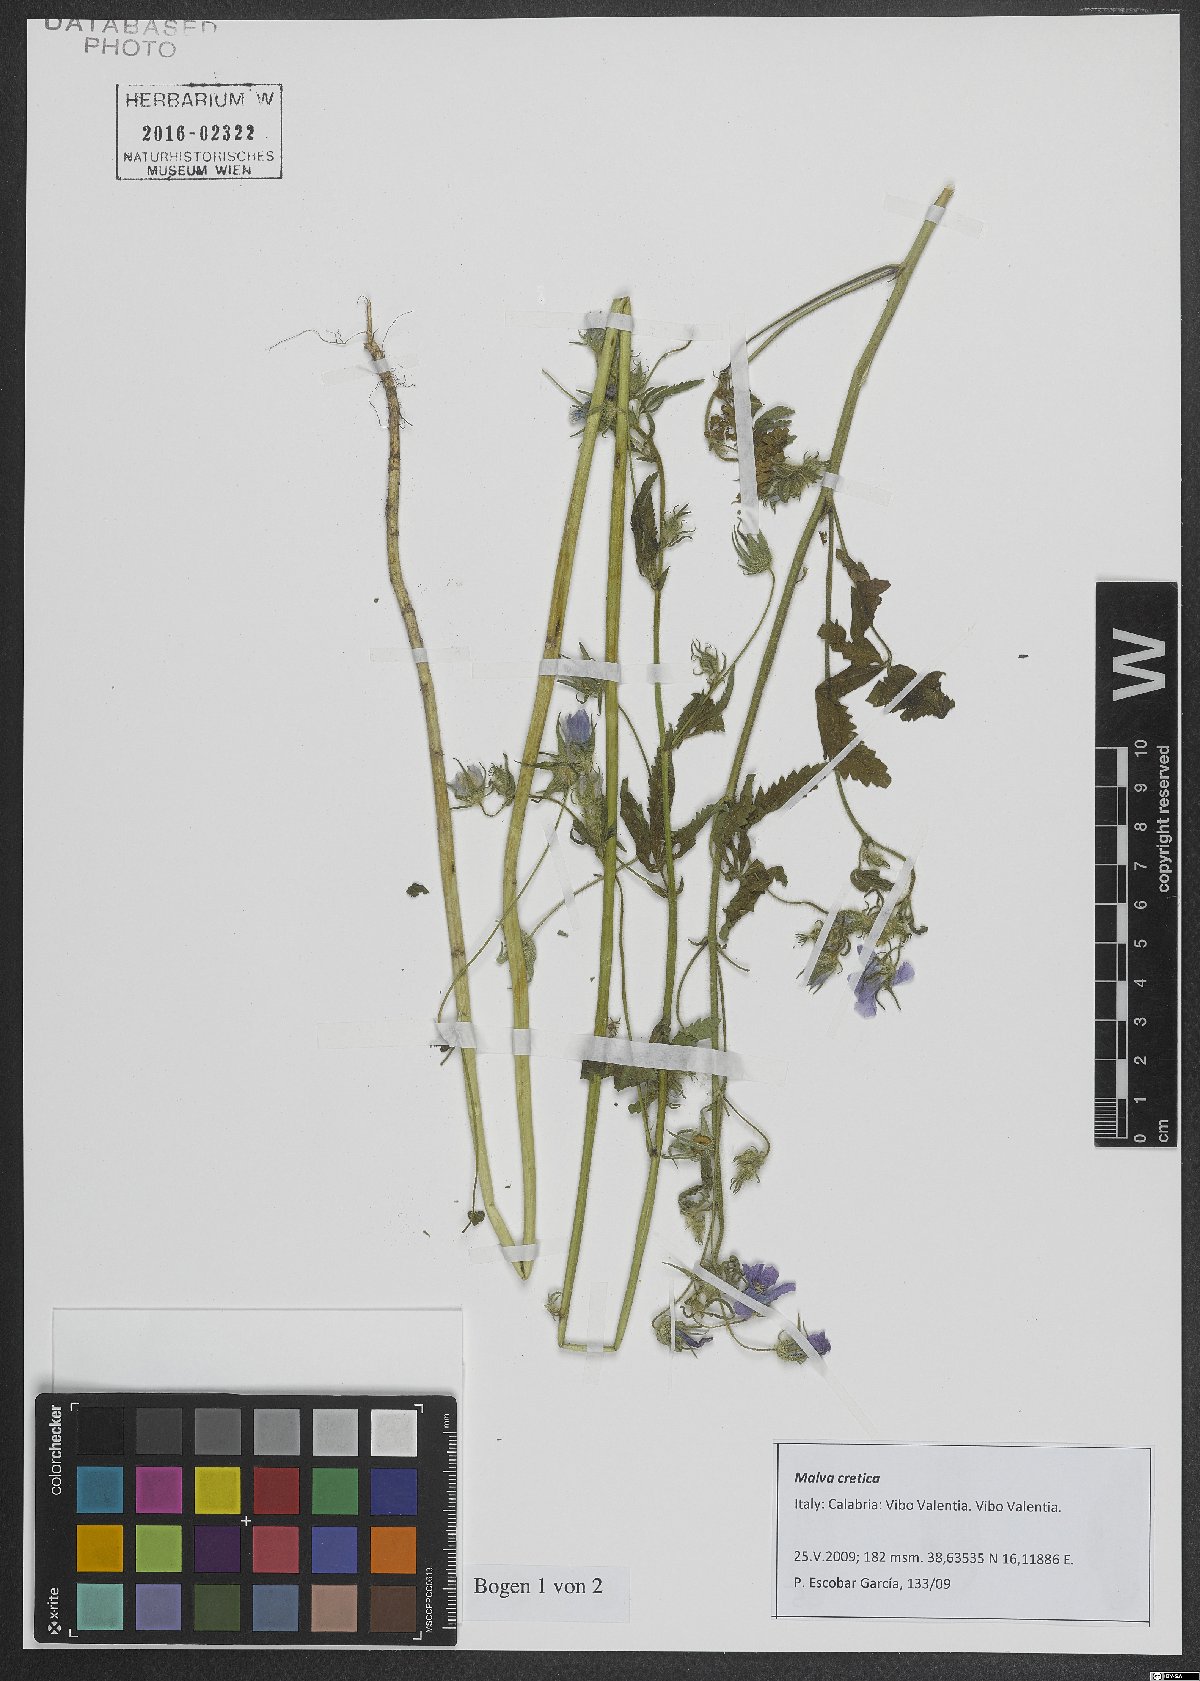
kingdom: Plantae
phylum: Tracheophyta
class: Magnoliopsida
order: Malvales
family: Malvaceae
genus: Malva
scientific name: Malva cretica
